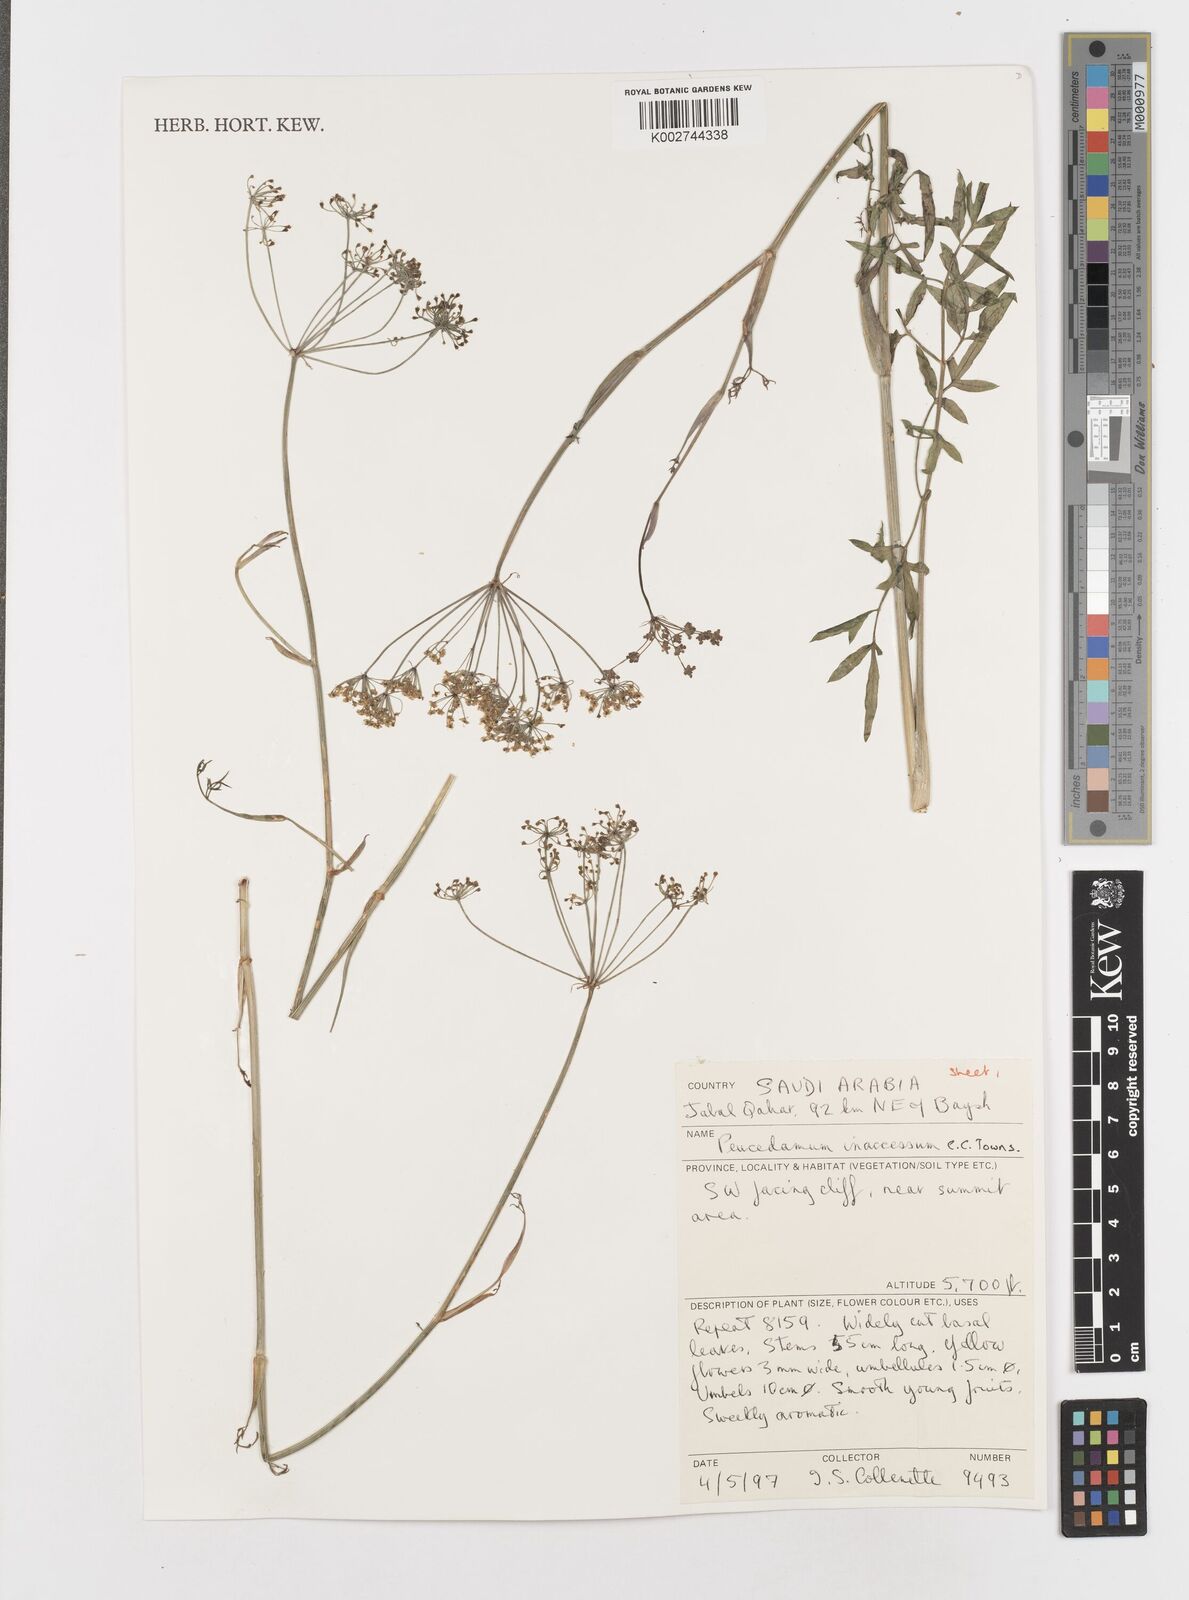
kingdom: Plantae
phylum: Tracheophyta
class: Magnoliopsida
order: Apiales
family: Apiaceae
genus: Ducrosia
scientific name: Ducrosia inaccessa
